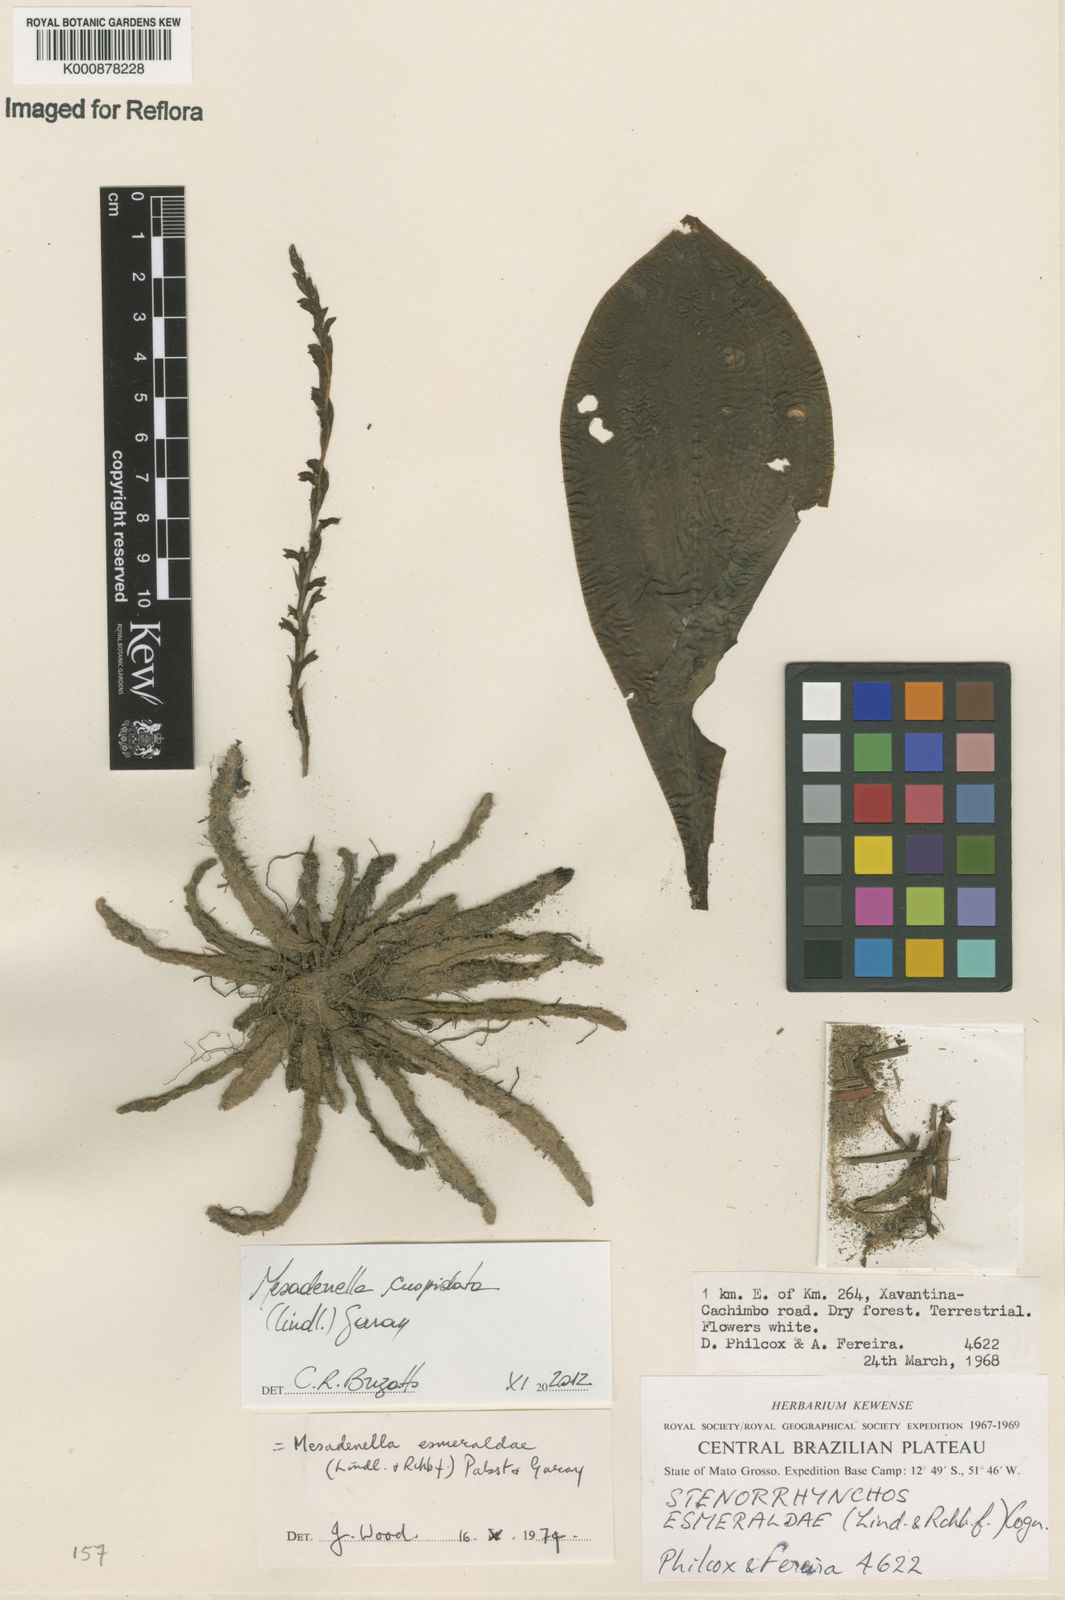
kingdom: Plantae
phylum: Tracheophyta
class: Liliopsida
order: Asparagales
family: Orchidaceae
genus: Mesadenella
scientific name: Mesadenella cuspidata
